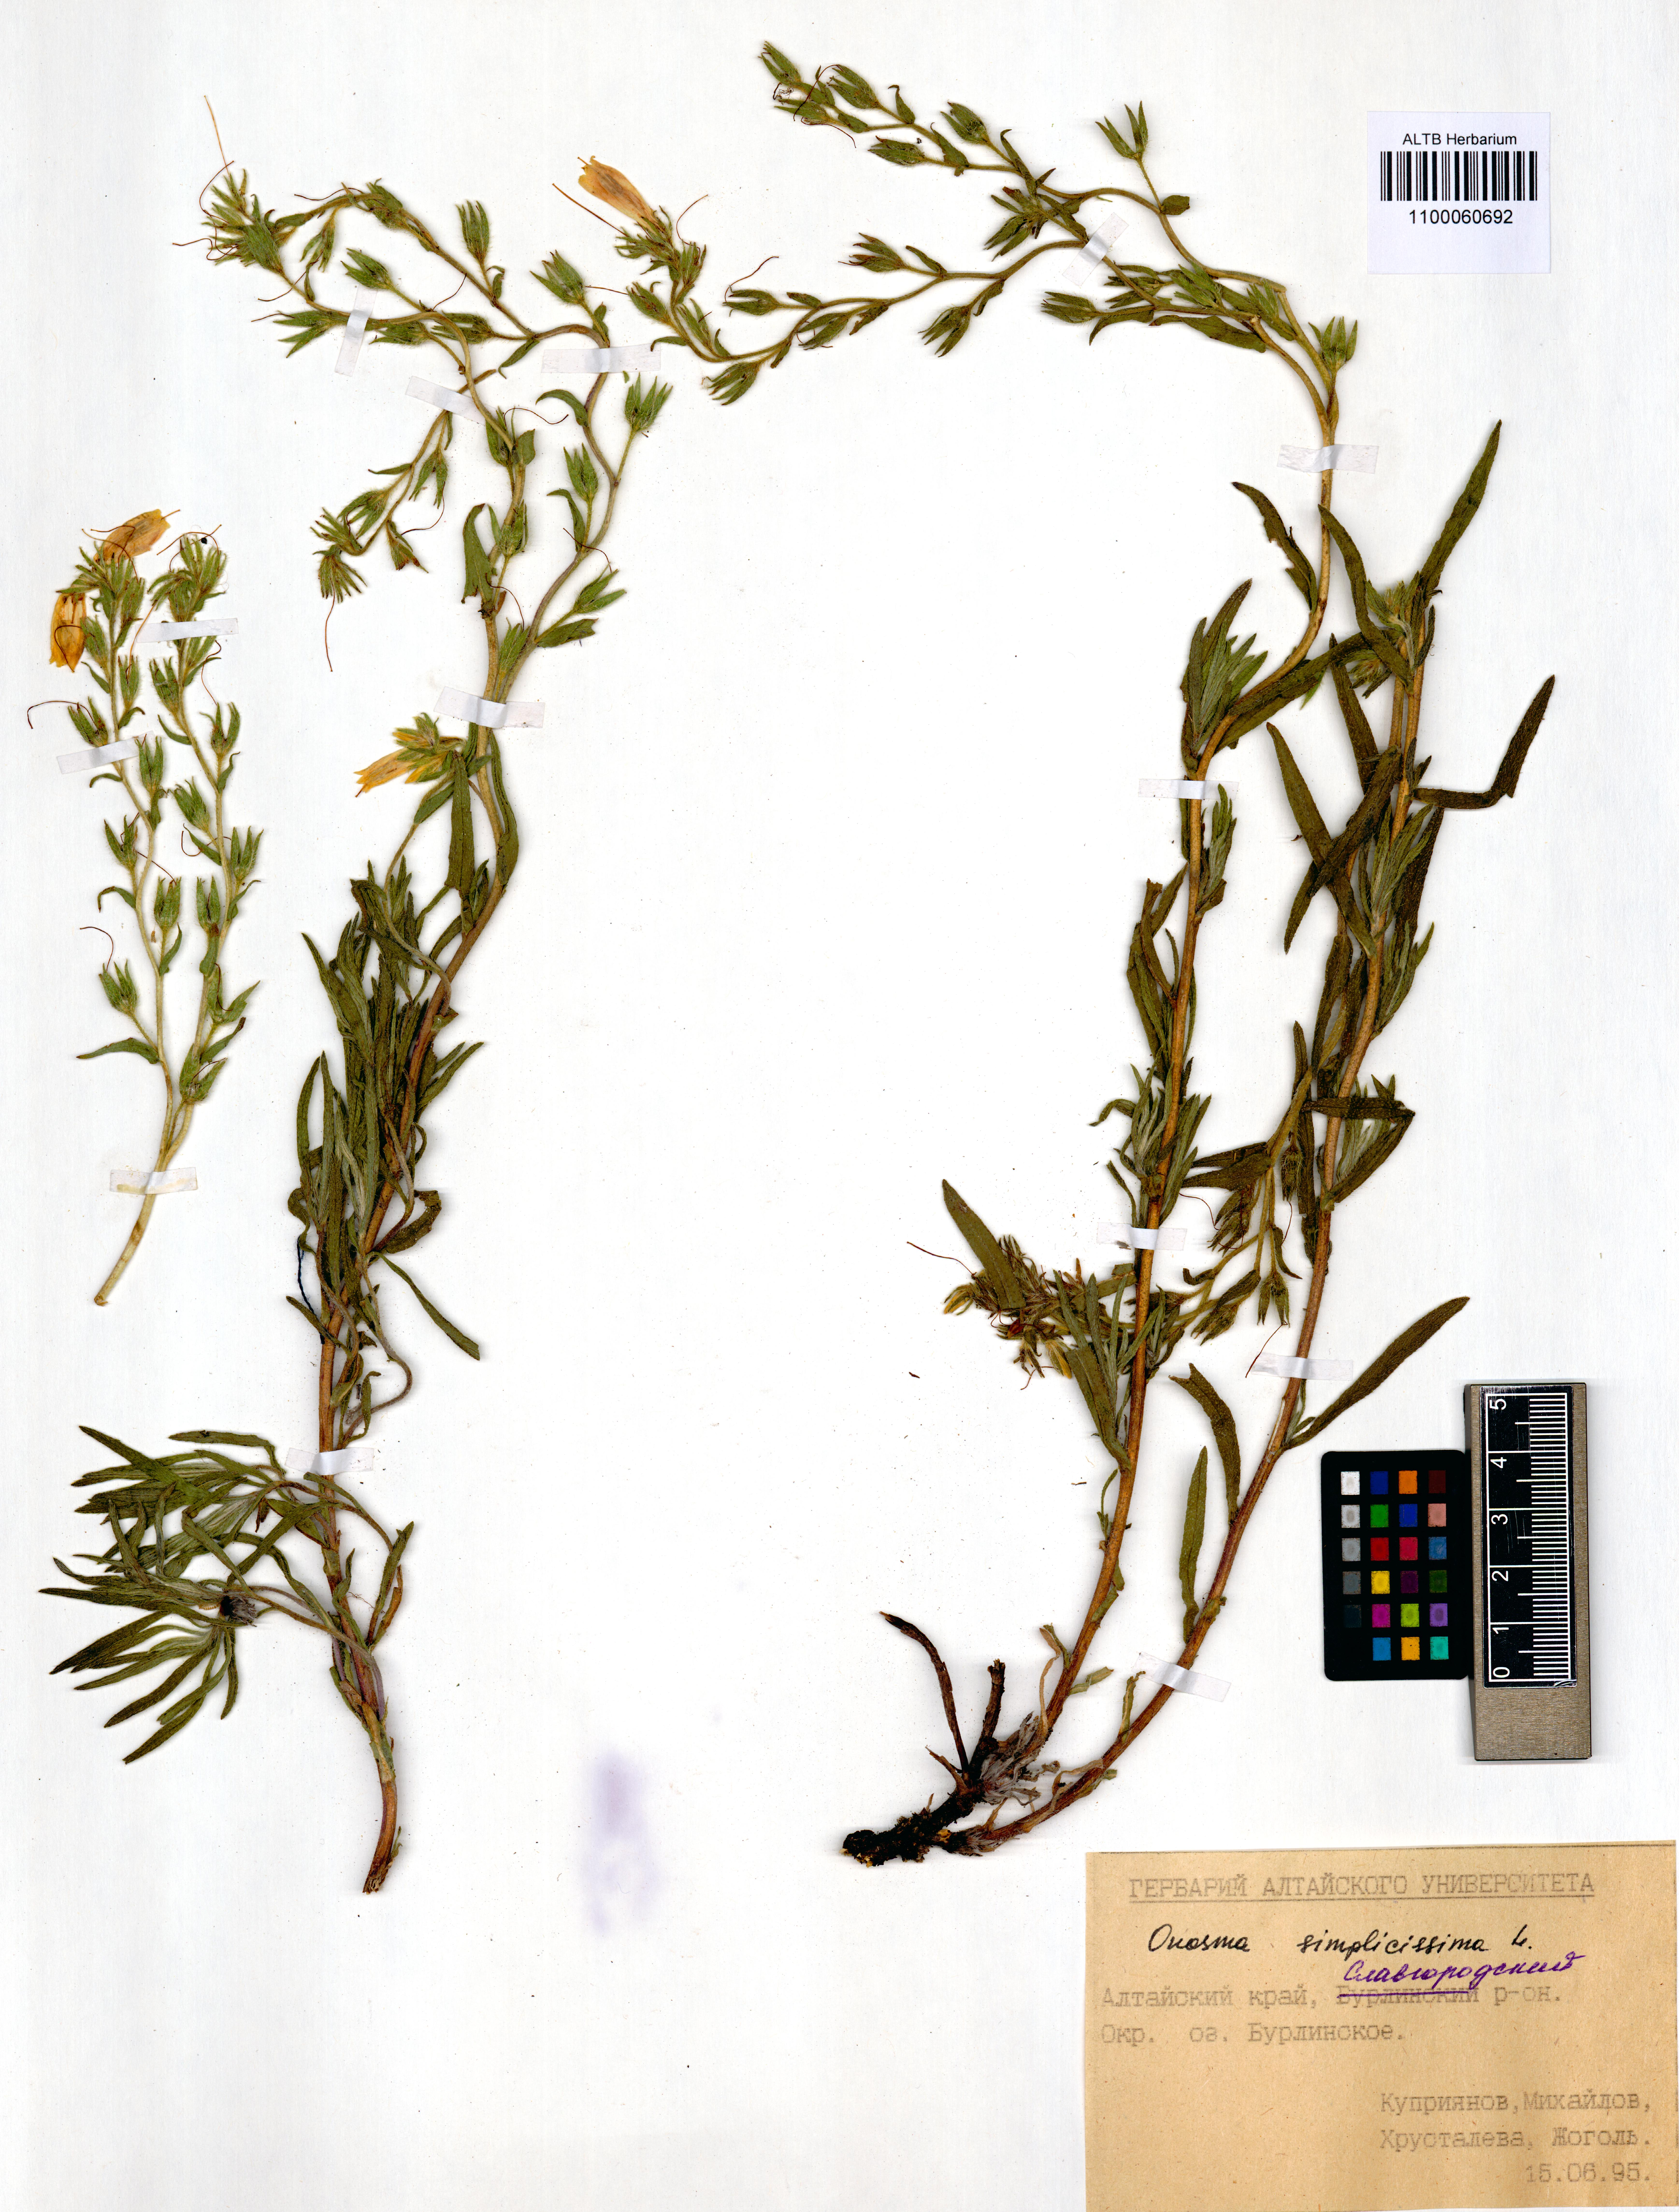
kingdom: Plantae
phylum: Tracheophyta
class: Magnoliopsida
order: Boraginales
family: Boraginaceae
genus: Onosma
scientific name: Onosma simplicissima
